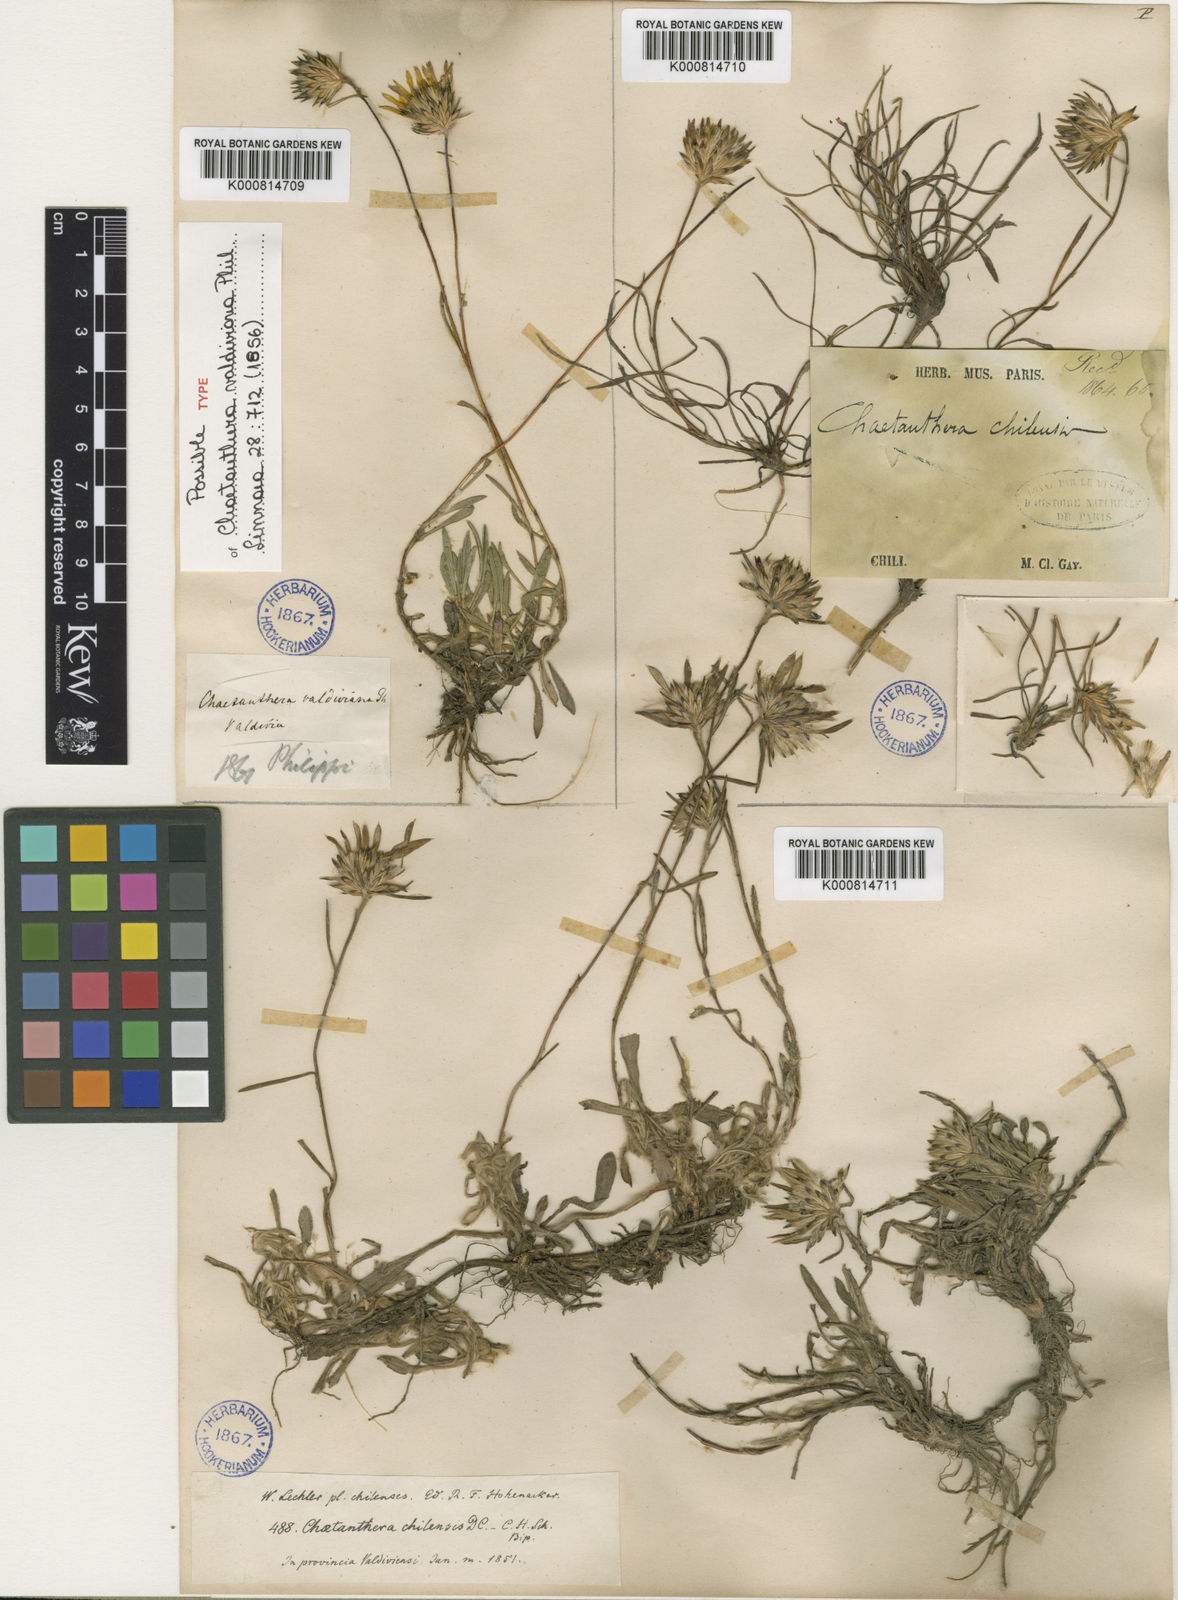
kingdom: Plantae
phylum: Tracheophyta
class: Magnoliopsida
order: Asterales
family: Asteraceae
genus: Chaetanthera
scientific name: Chaetanthera serrata
